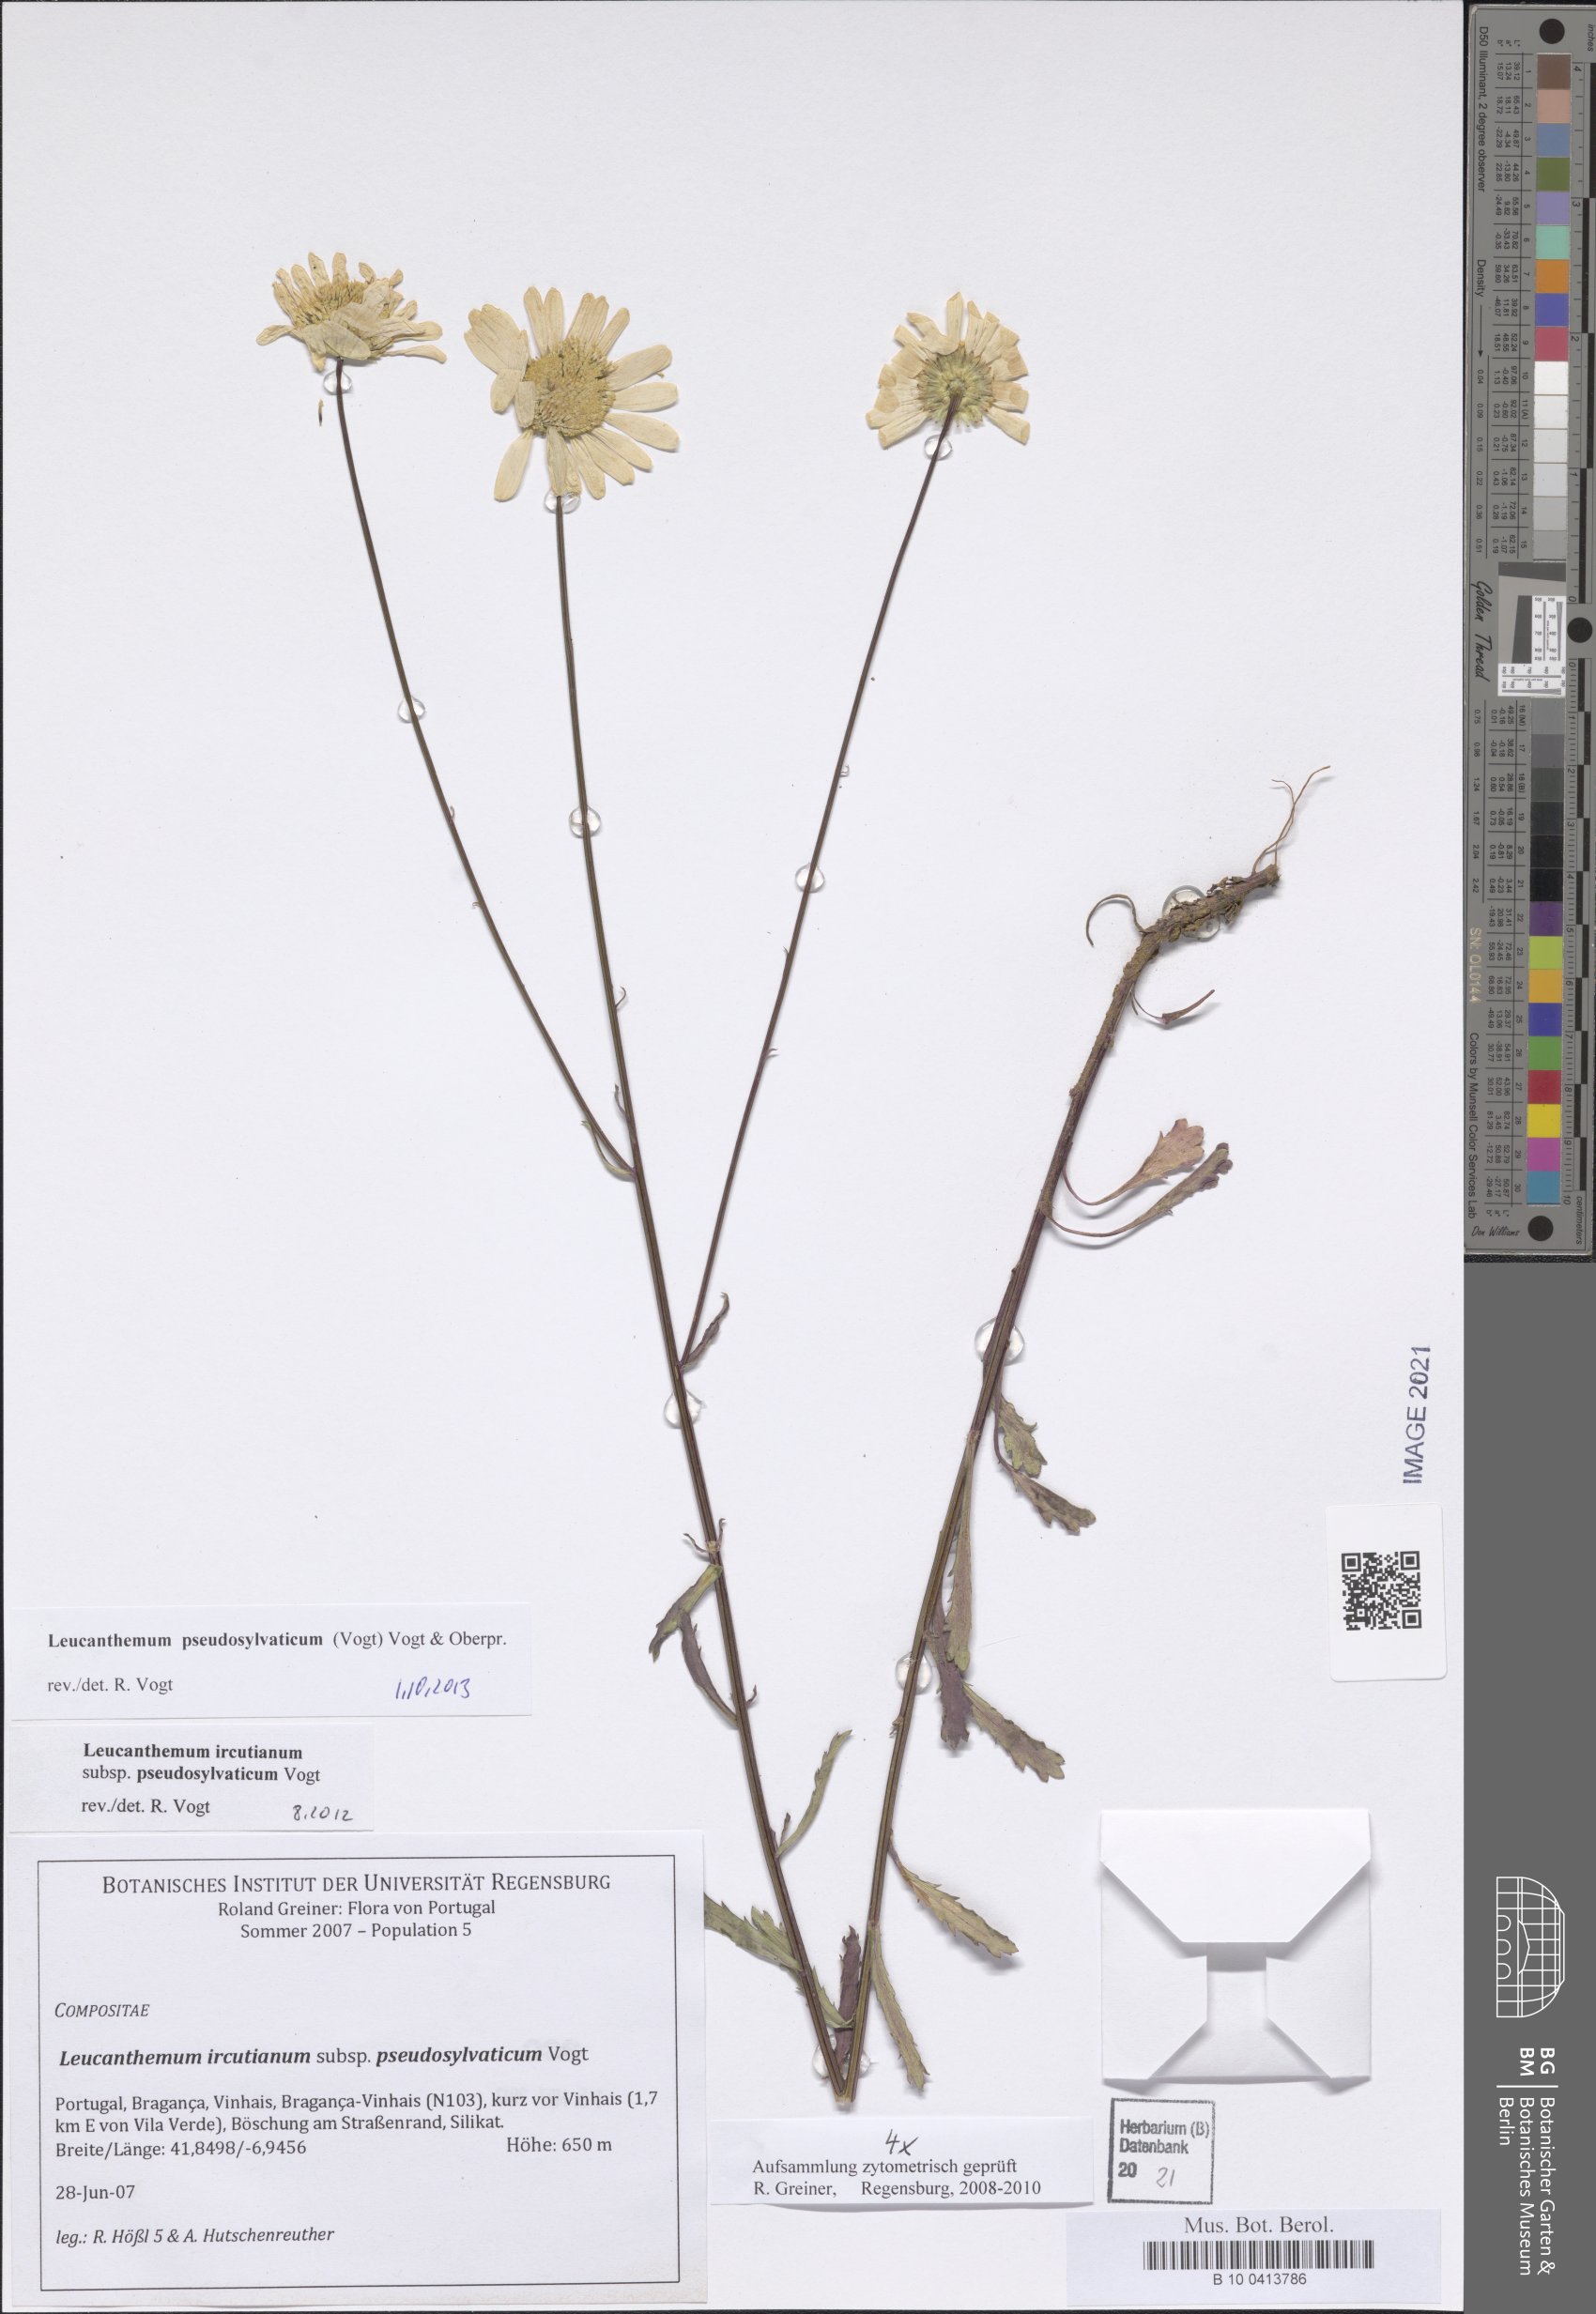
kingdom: Plantae
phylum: Tracheophyta
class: Magnoliopsida
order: Asterales
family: Asteraceae
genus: Leucanthemum
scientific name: Leucanthemum pseudosylvaticum
